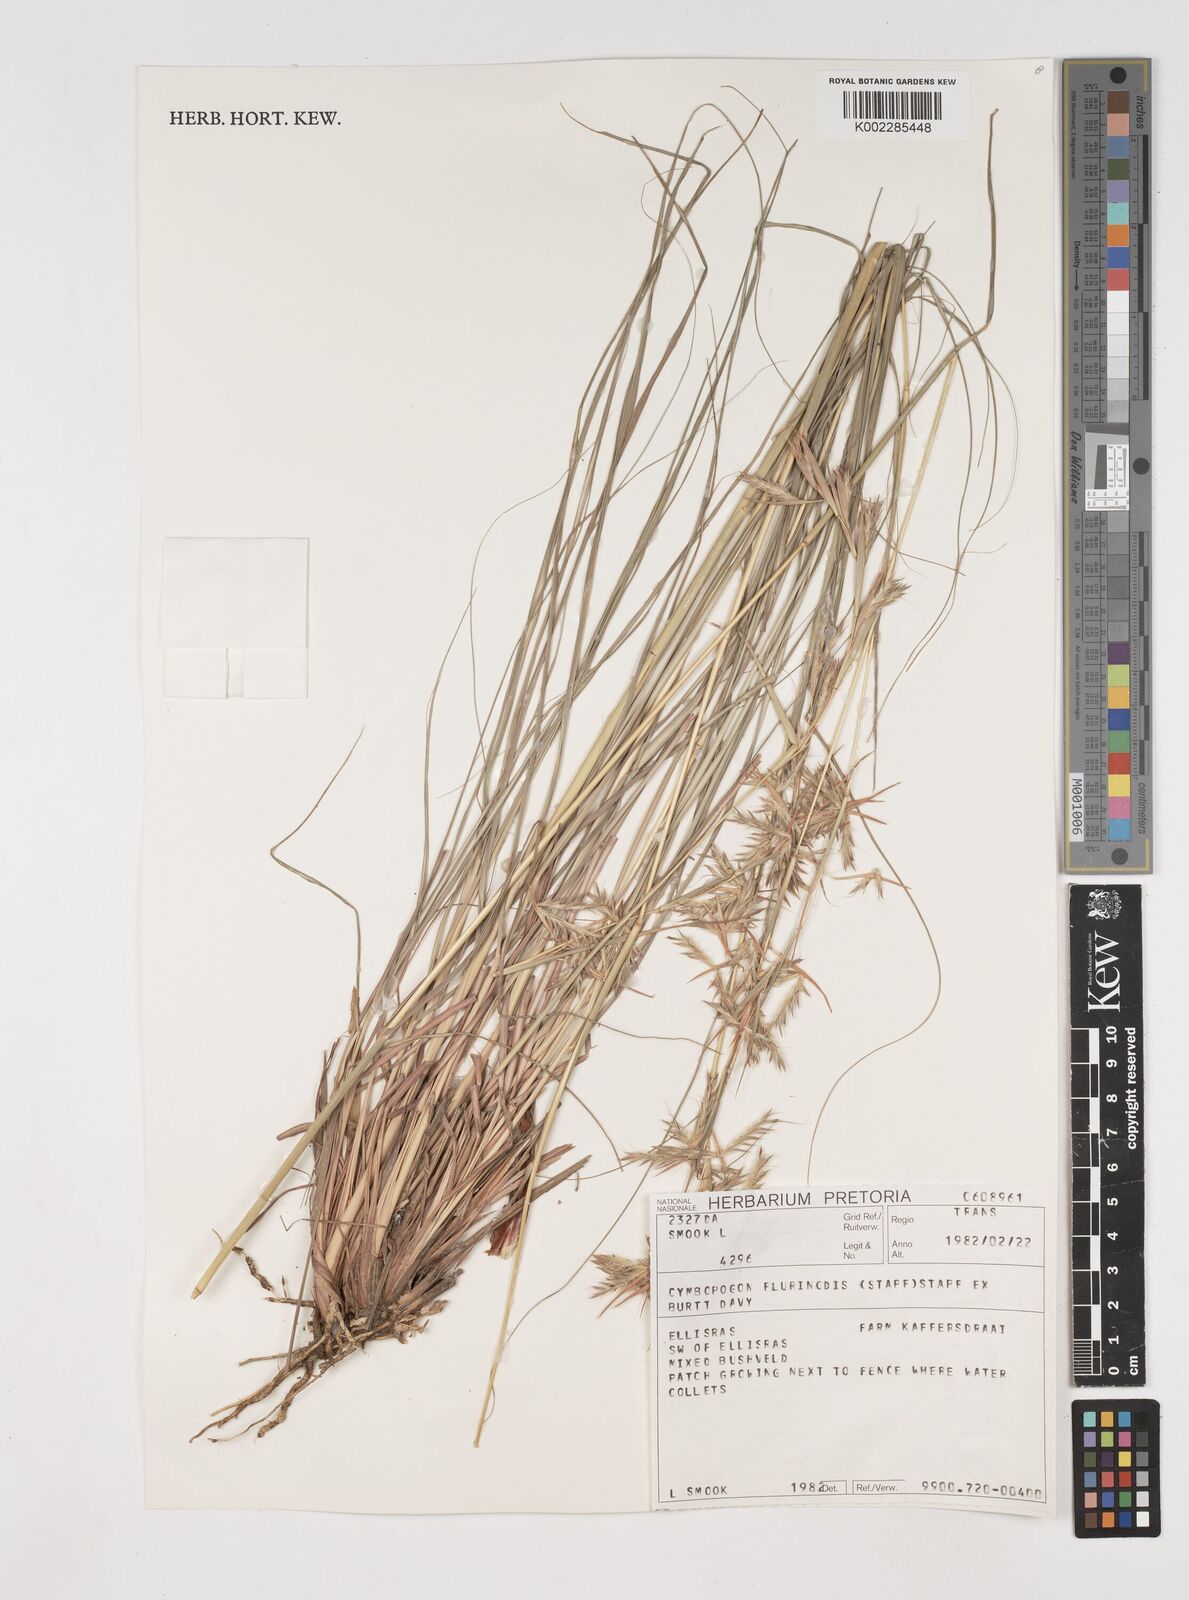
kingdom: Plantae
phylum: Tracheophyta
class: Liliopsida
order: Poales
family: Poaceae
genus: Cymbopogon
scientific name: Cymbopogon pospischilii
